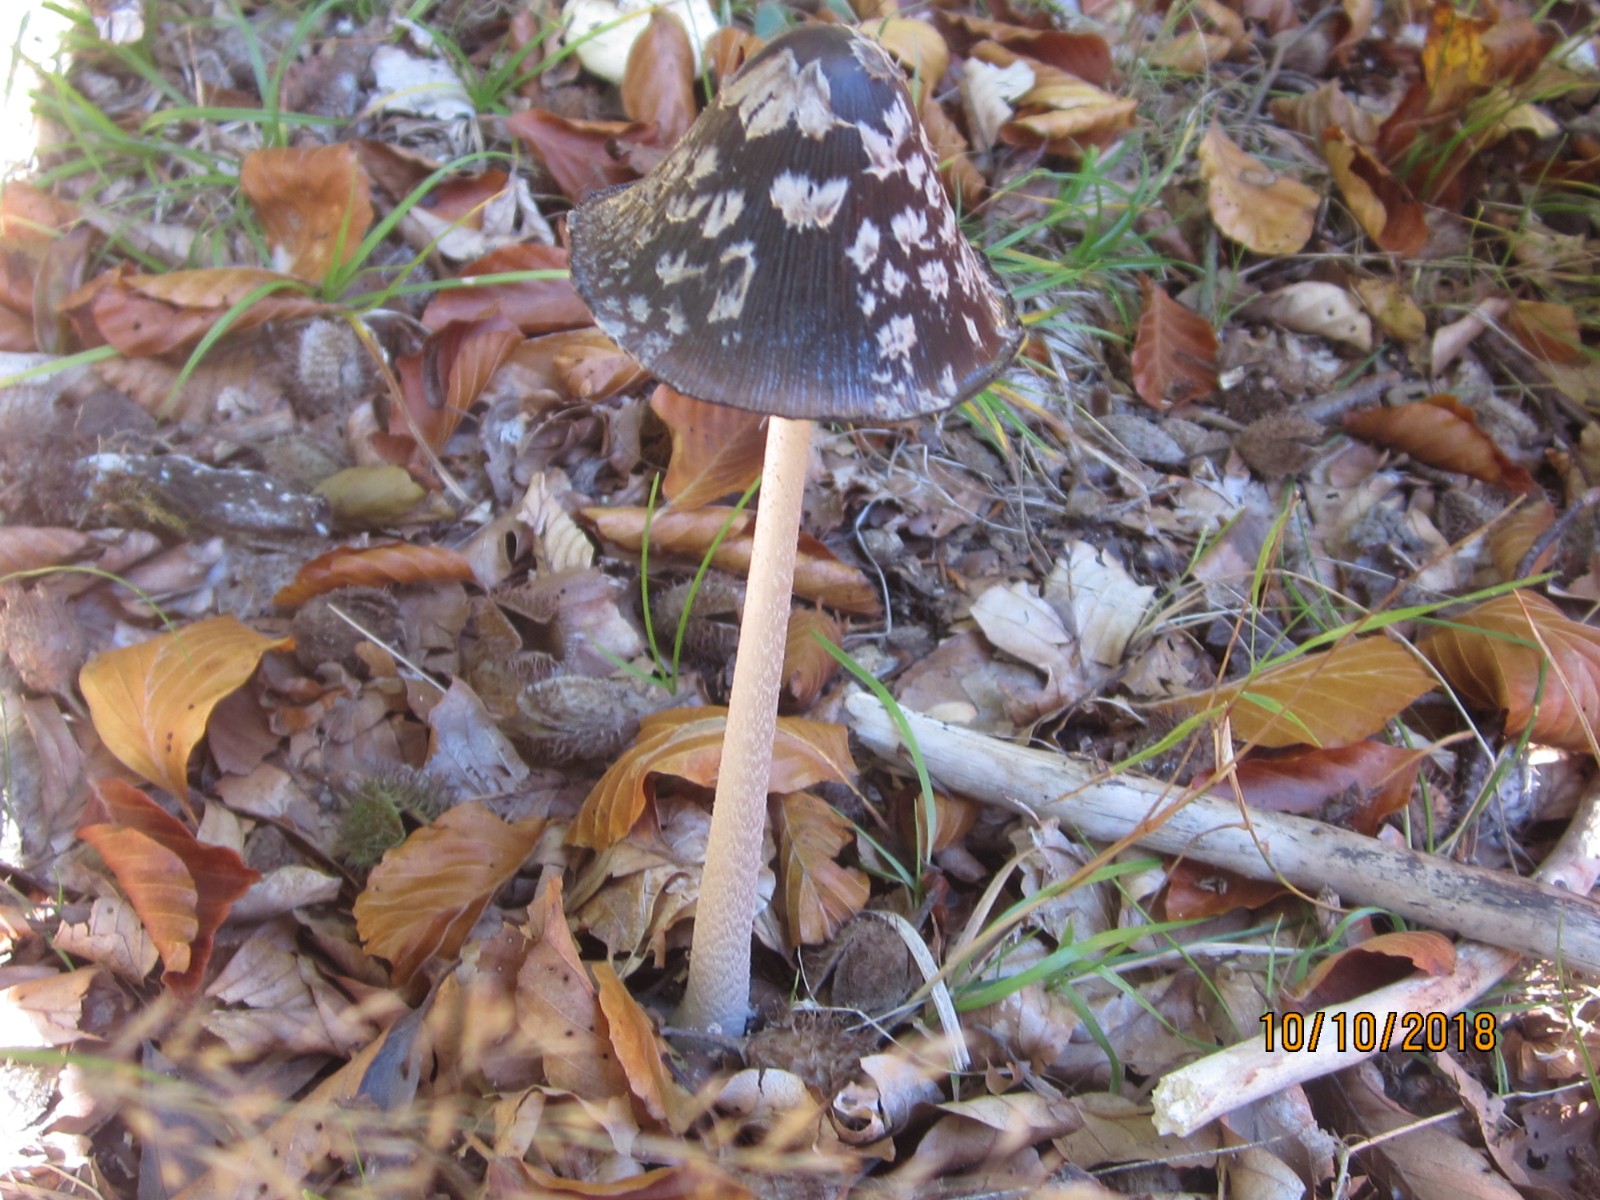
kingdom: Fungi
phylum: Basidiomycota
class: Agaricomycetes
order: Agaricales
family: Psathyrellaceae
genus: Coprinopsis
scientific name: Coprinopsis picacea
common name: skade-blækhat
